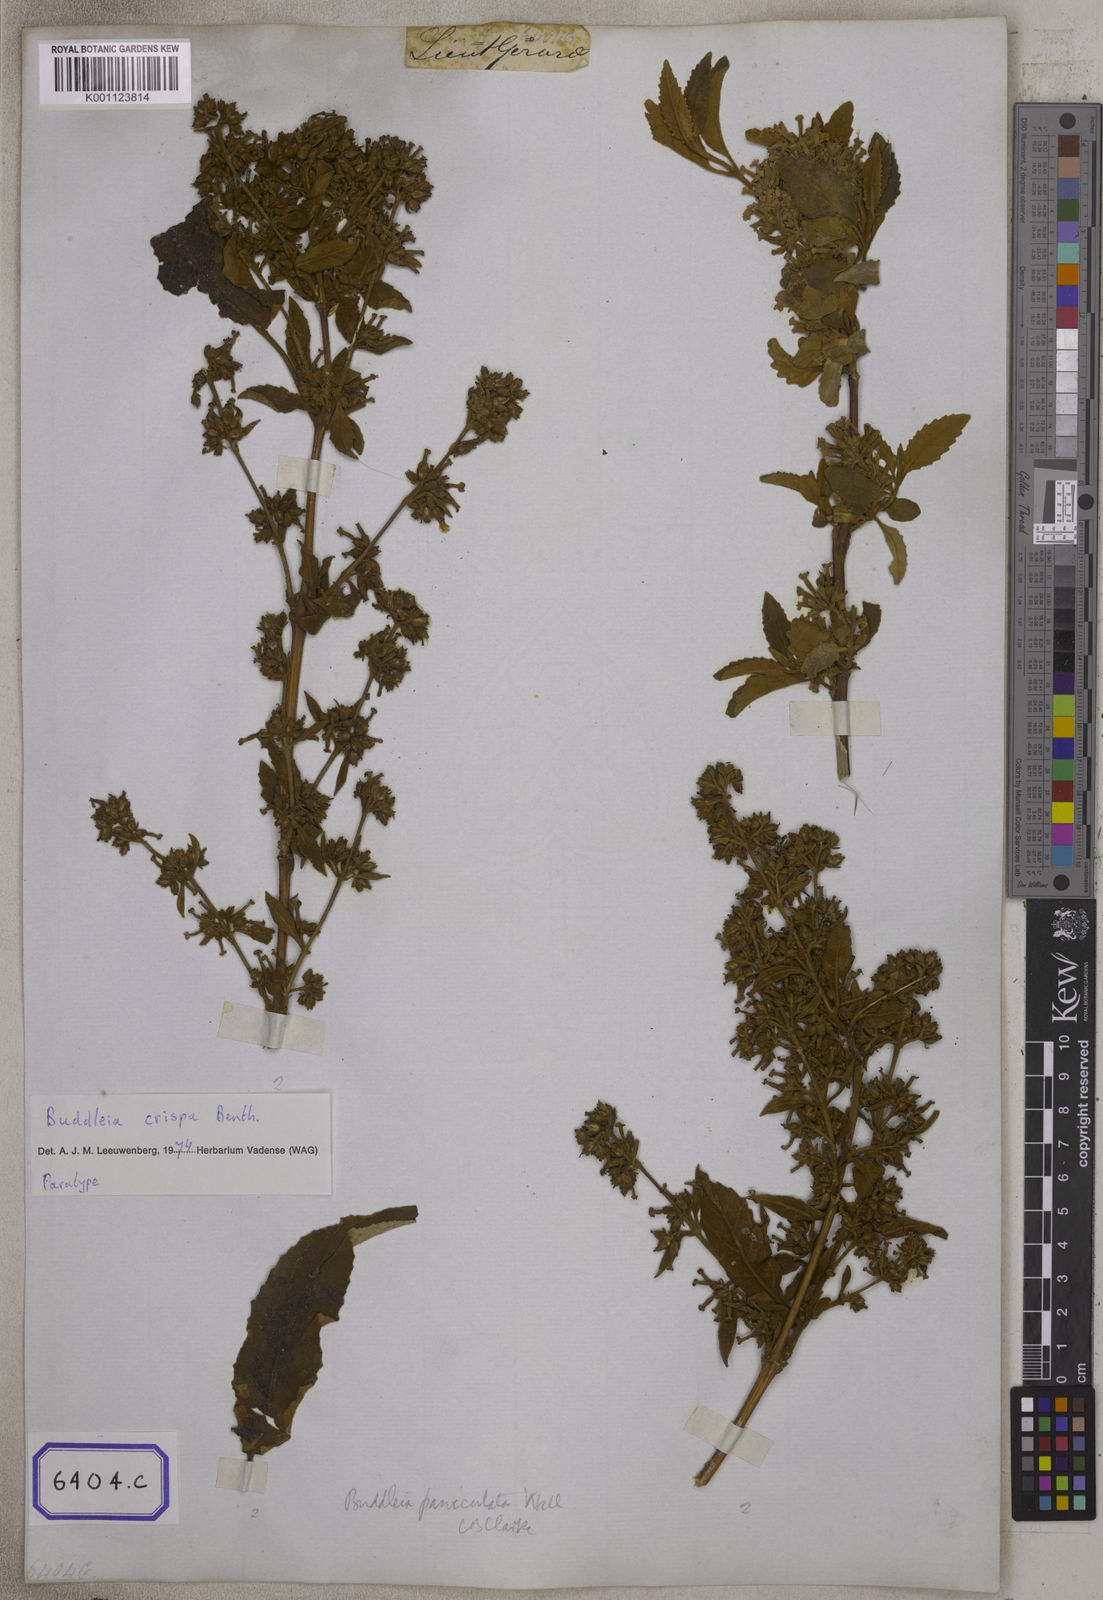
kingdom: Plantae
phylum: Tracheophyta
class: Magnoliopsida
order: Lamiales
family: Scrophulariaceae
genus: Buddleja
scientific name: Buddleja crispa
